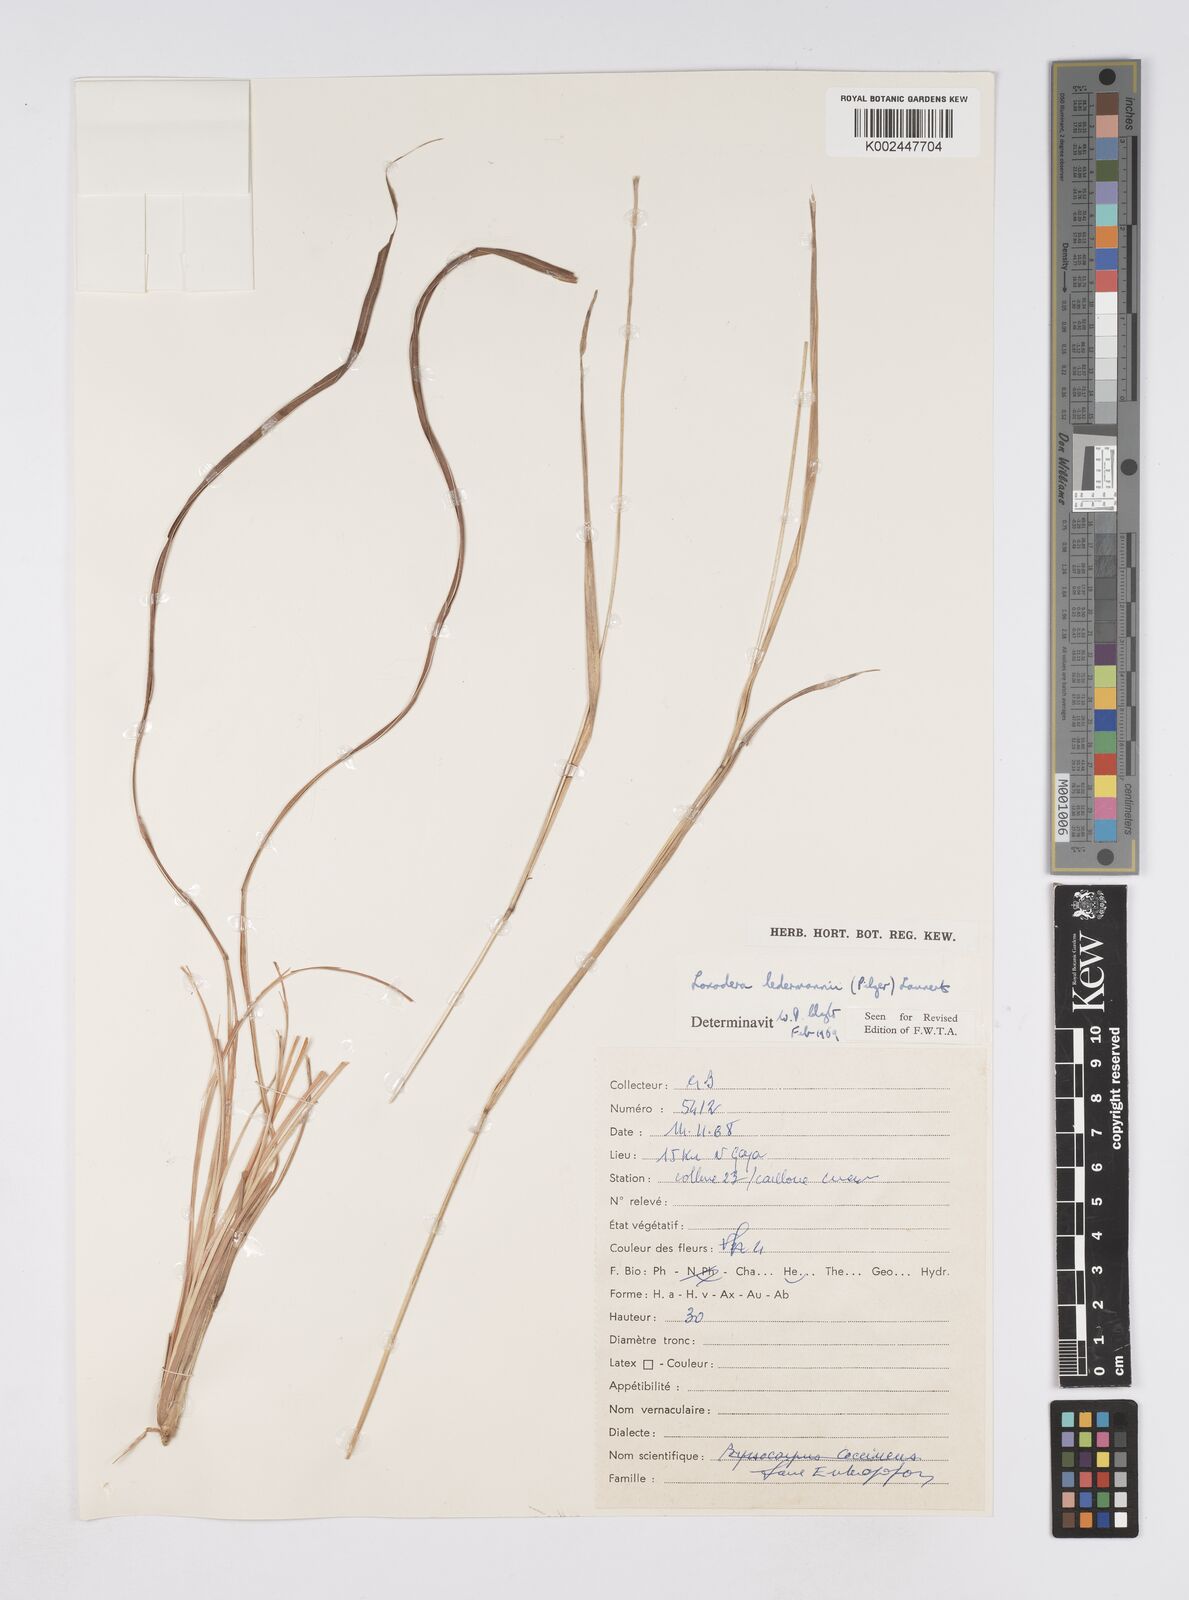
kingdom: Plantae
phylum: Tracheophyta
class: Liliopsida
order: Poales
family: Poaceae
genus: Loxodera
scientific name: Loxodera ledermannii
